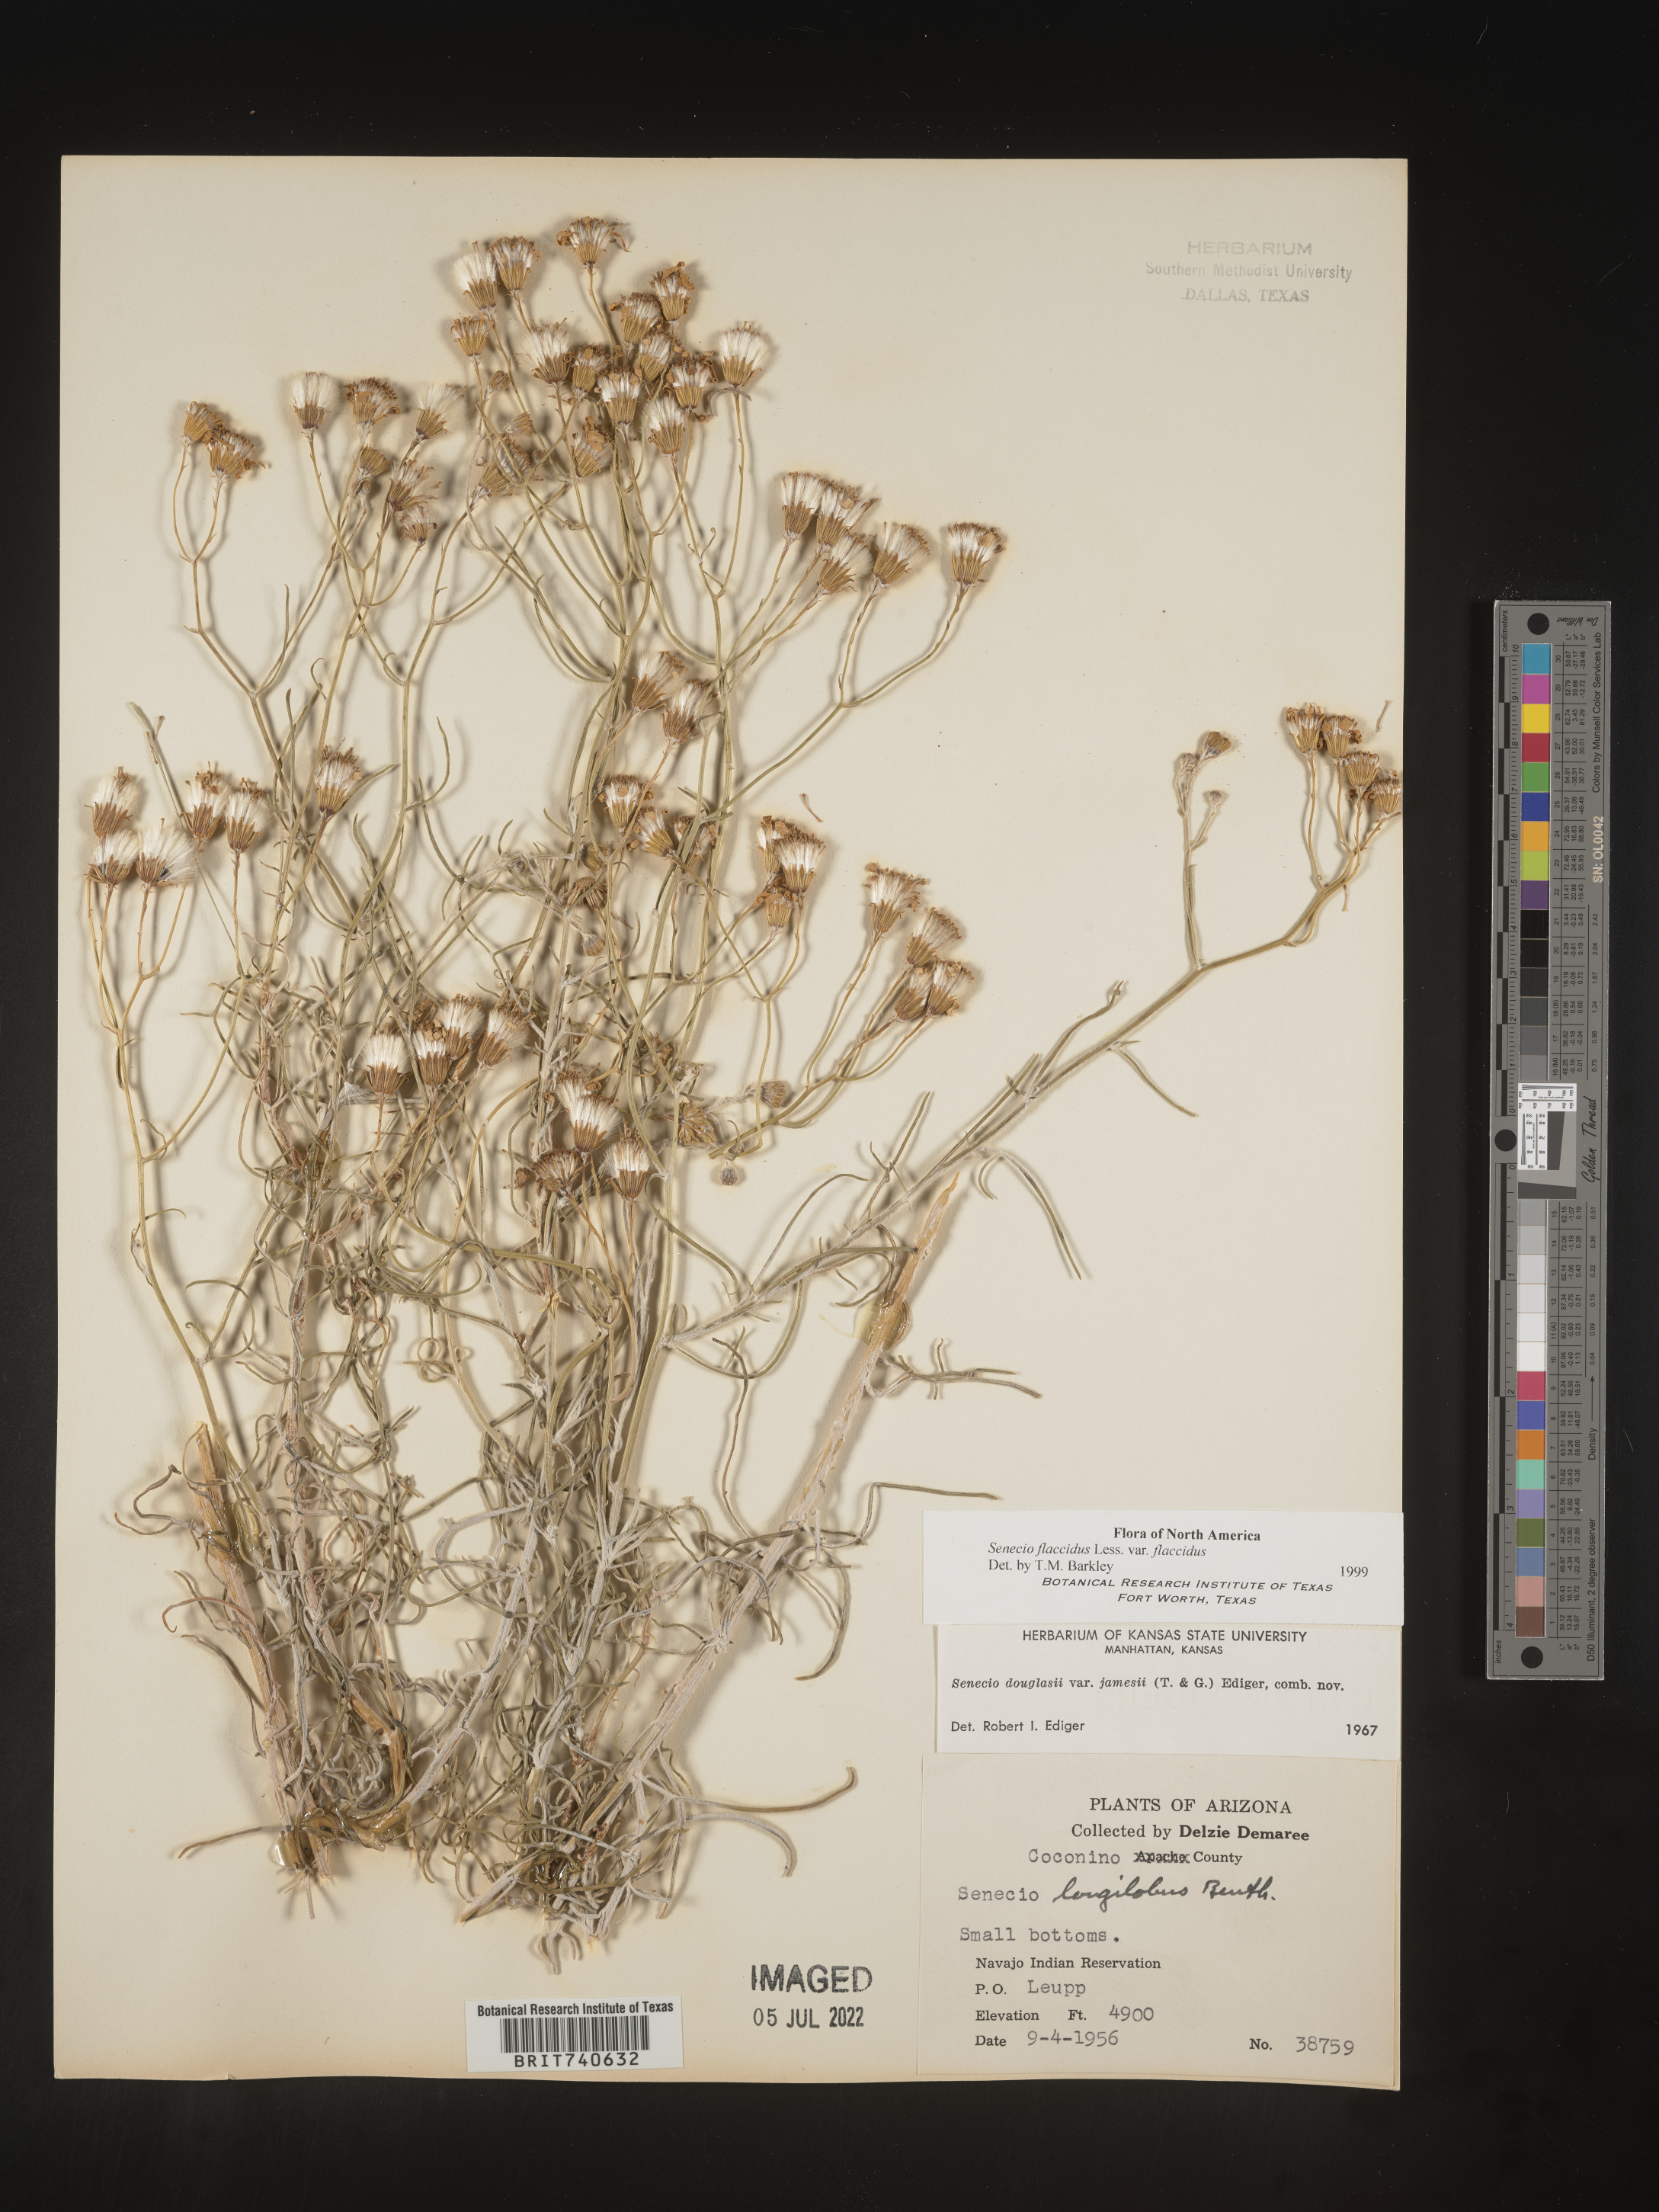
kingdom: Plantae
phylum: Tracheophyta
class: Magnoliopsida
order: Asterales
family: Asteraceae
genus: Senecio
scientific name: Senecio flaccidus
